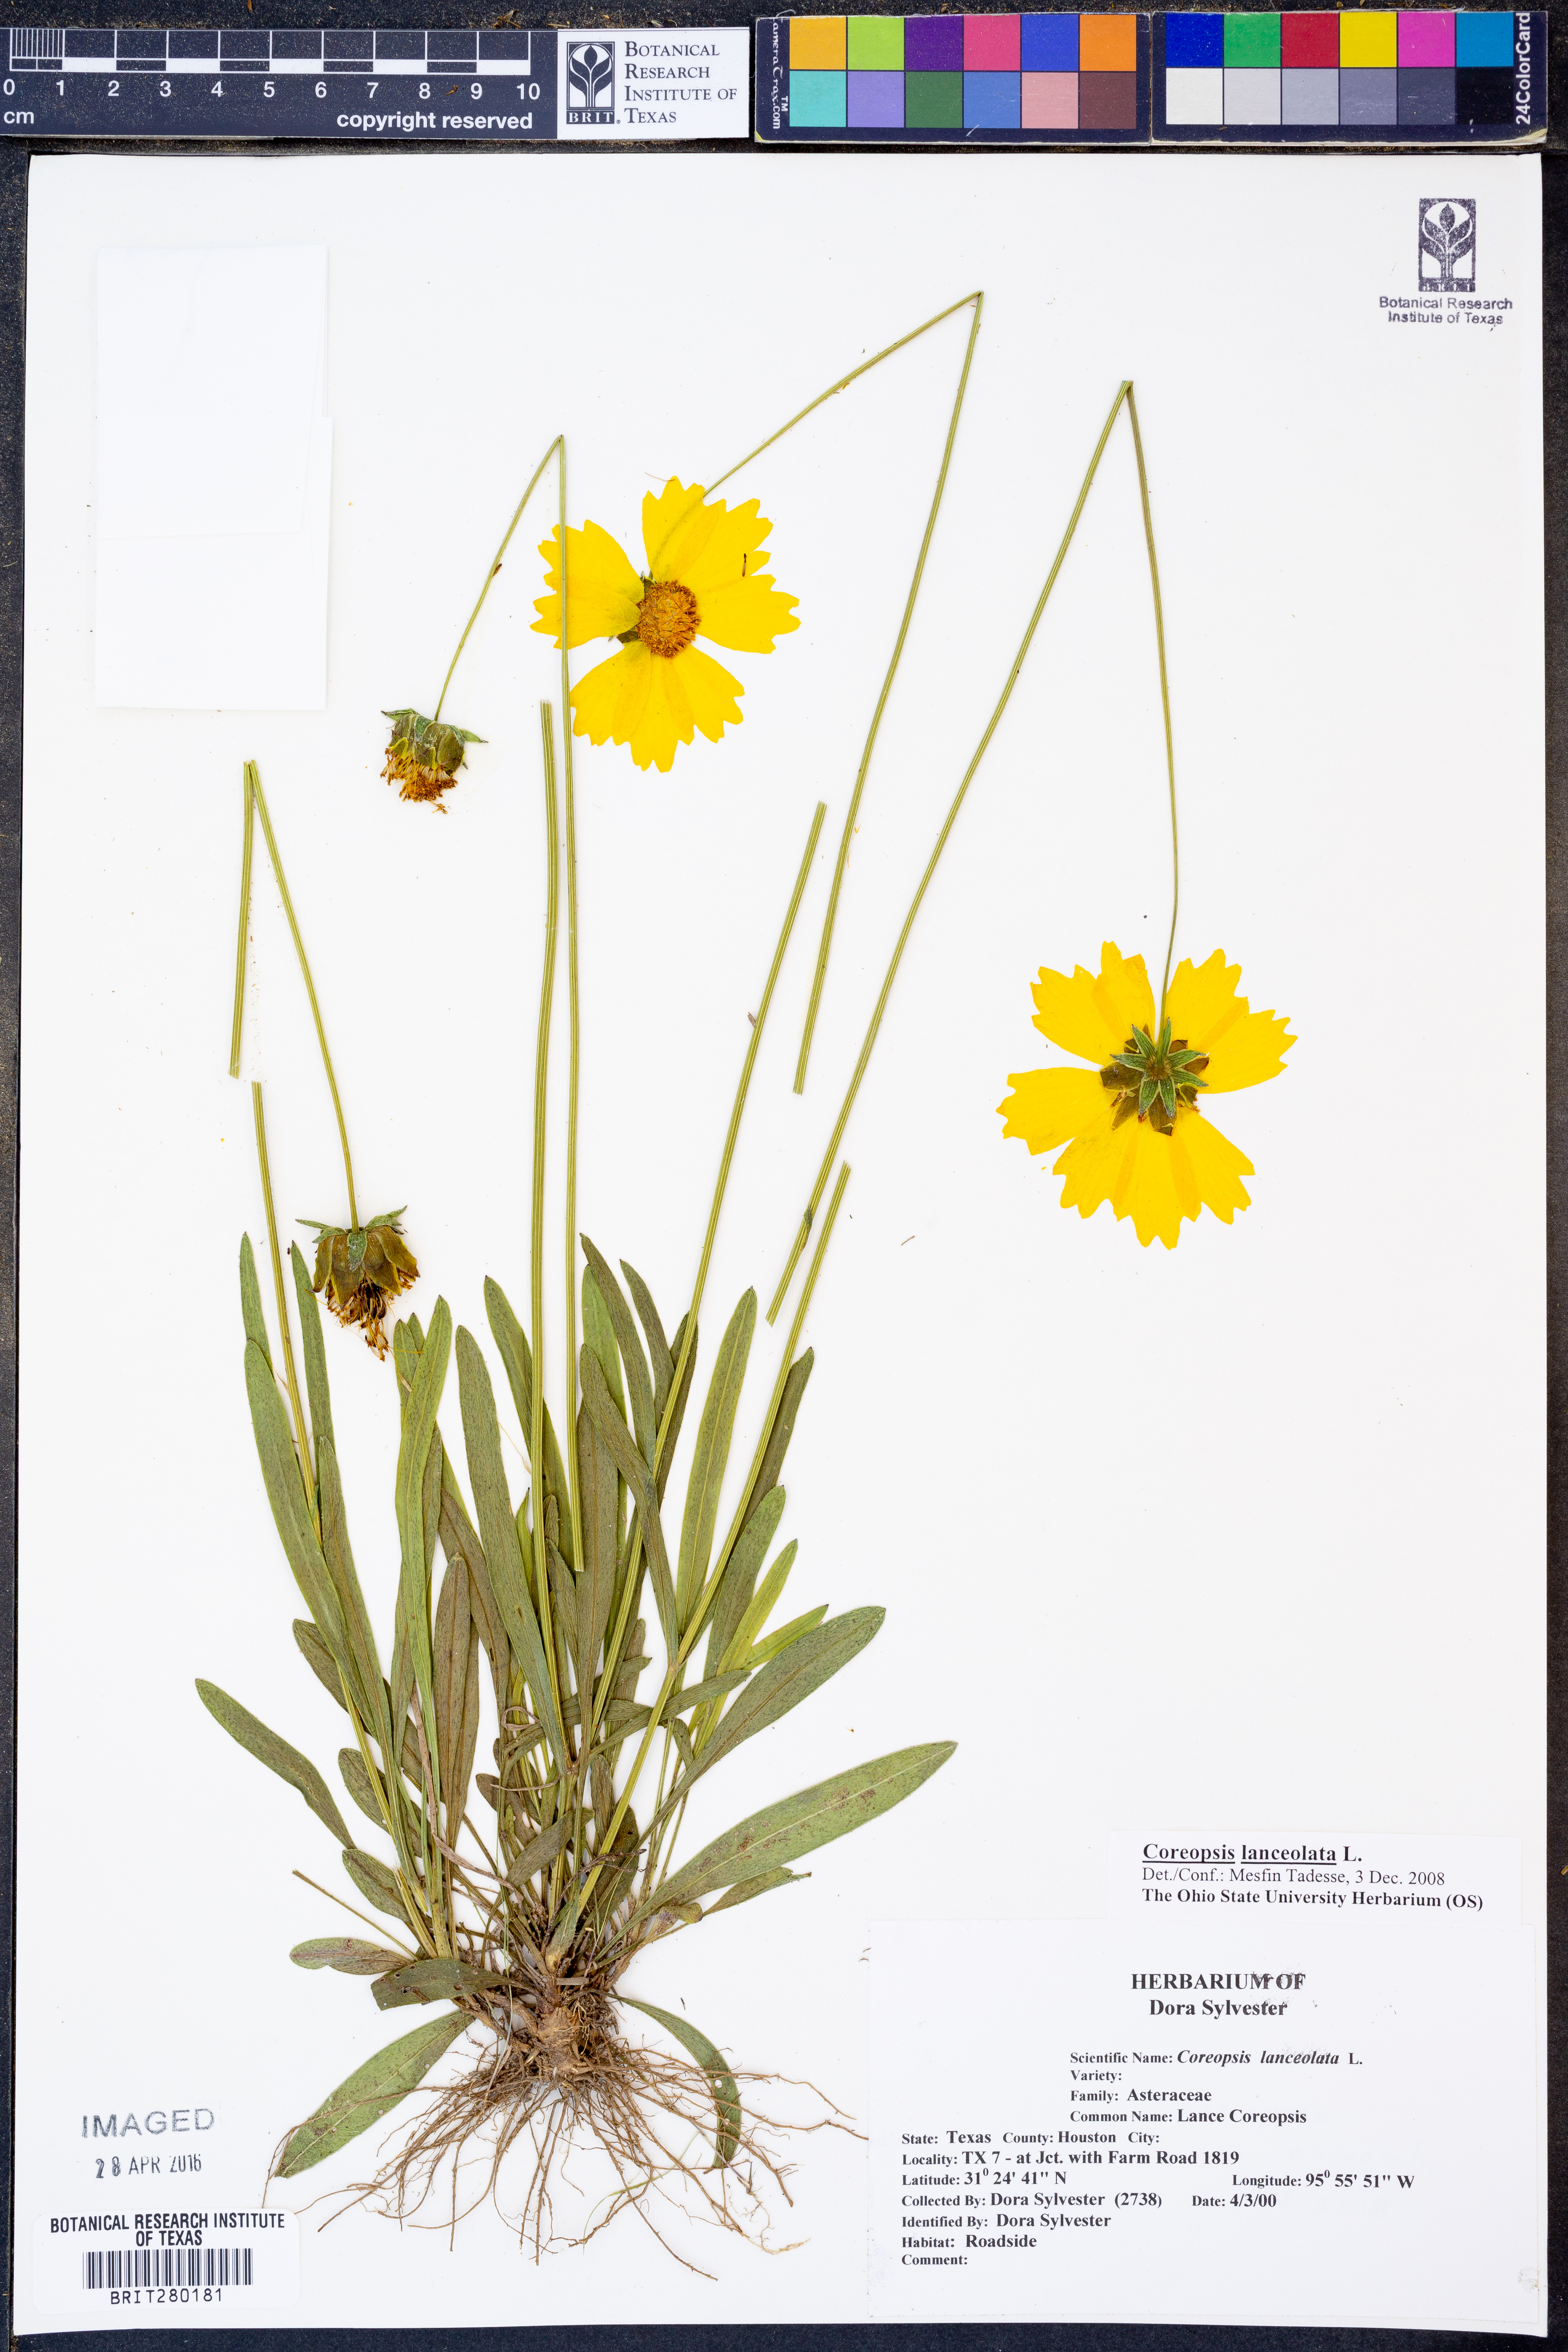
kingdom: Plantae
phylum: Tracheophyta
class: Magnoliopsida
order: Asterales
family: Asteraceae
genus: Coreopsis
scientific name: Coreopsis lanceolata
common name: Garden coreopsis
